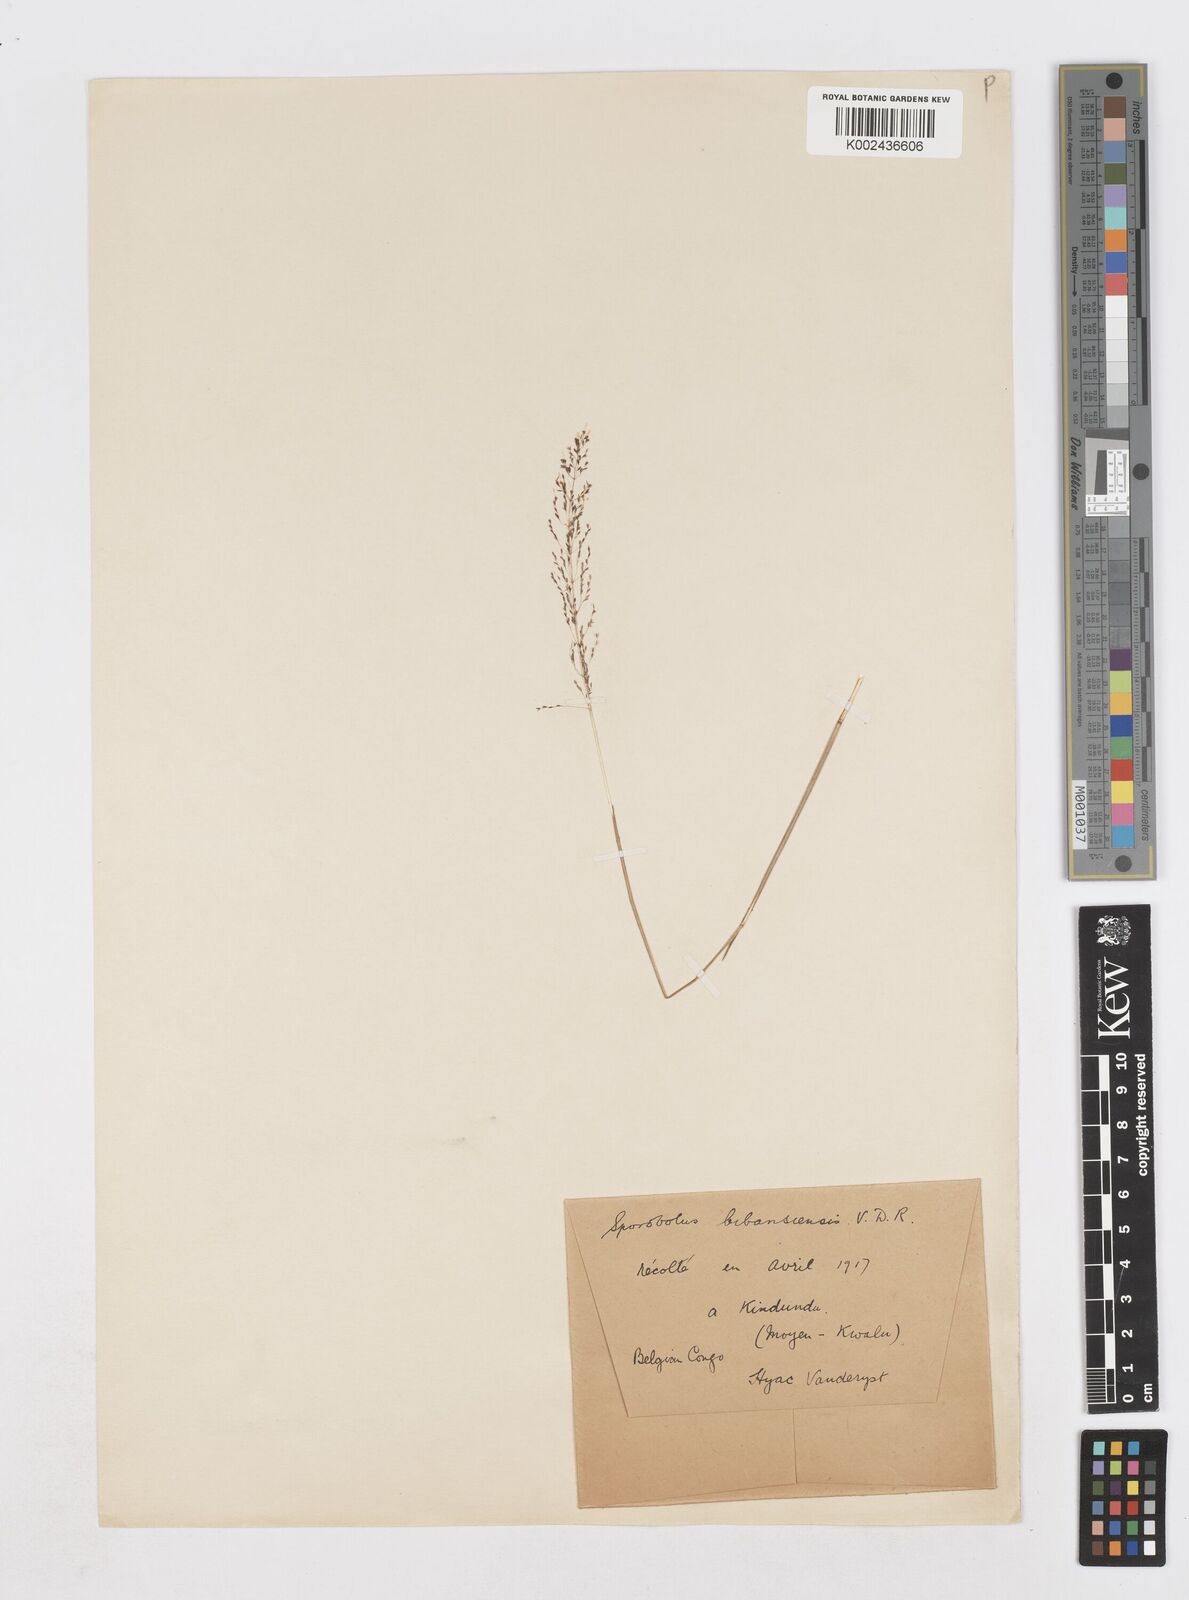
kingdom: Plantae
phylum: Tracheophyta
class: Liliopsida
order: Poales
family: Poaceae
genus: Sporobolus
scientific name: Sporobolus paniculatus
